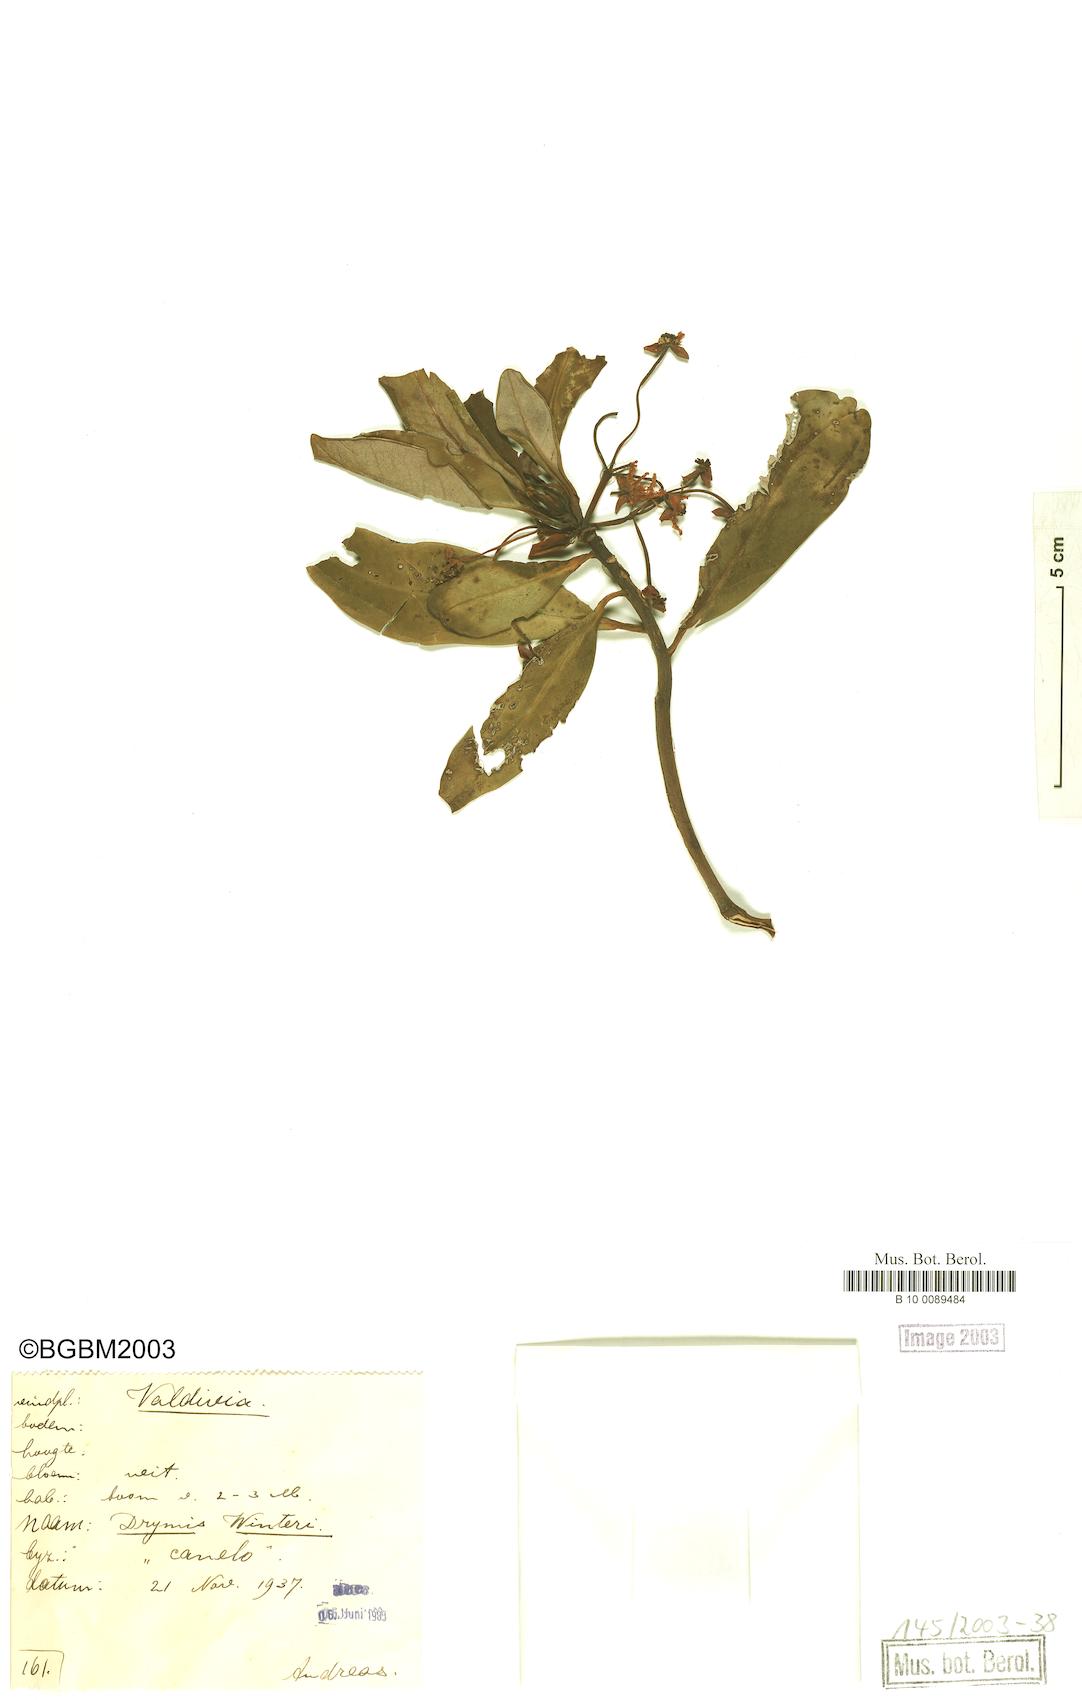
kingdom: Plantae
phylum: Tracheophyta
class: Magnoliopsida
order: Canellales
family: Winteraceae
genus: Drimys
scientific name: Drimys winteri
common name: Winter's-bark
